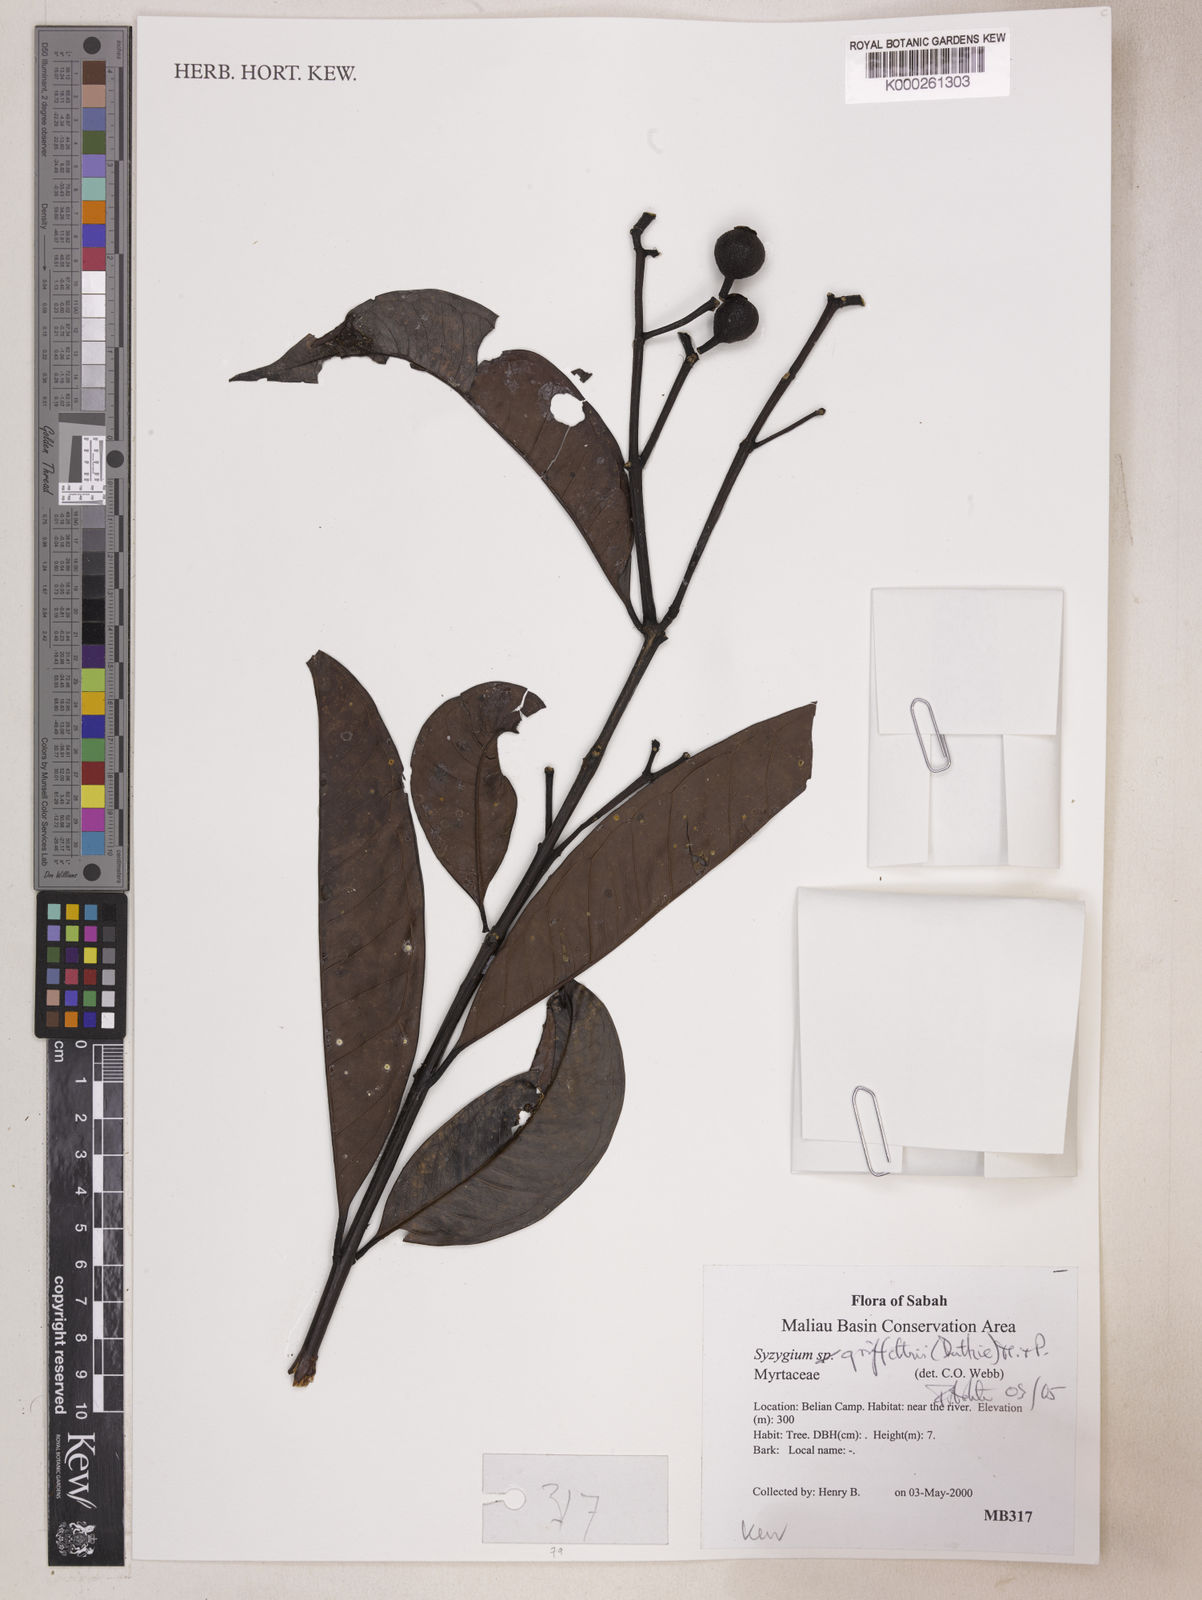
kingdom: Plantae
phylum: Tracheophyta
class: Magnoliopsida
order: Myrtales
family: Myrtaceae
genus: Syzygium
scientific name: Syzygium griffithii
